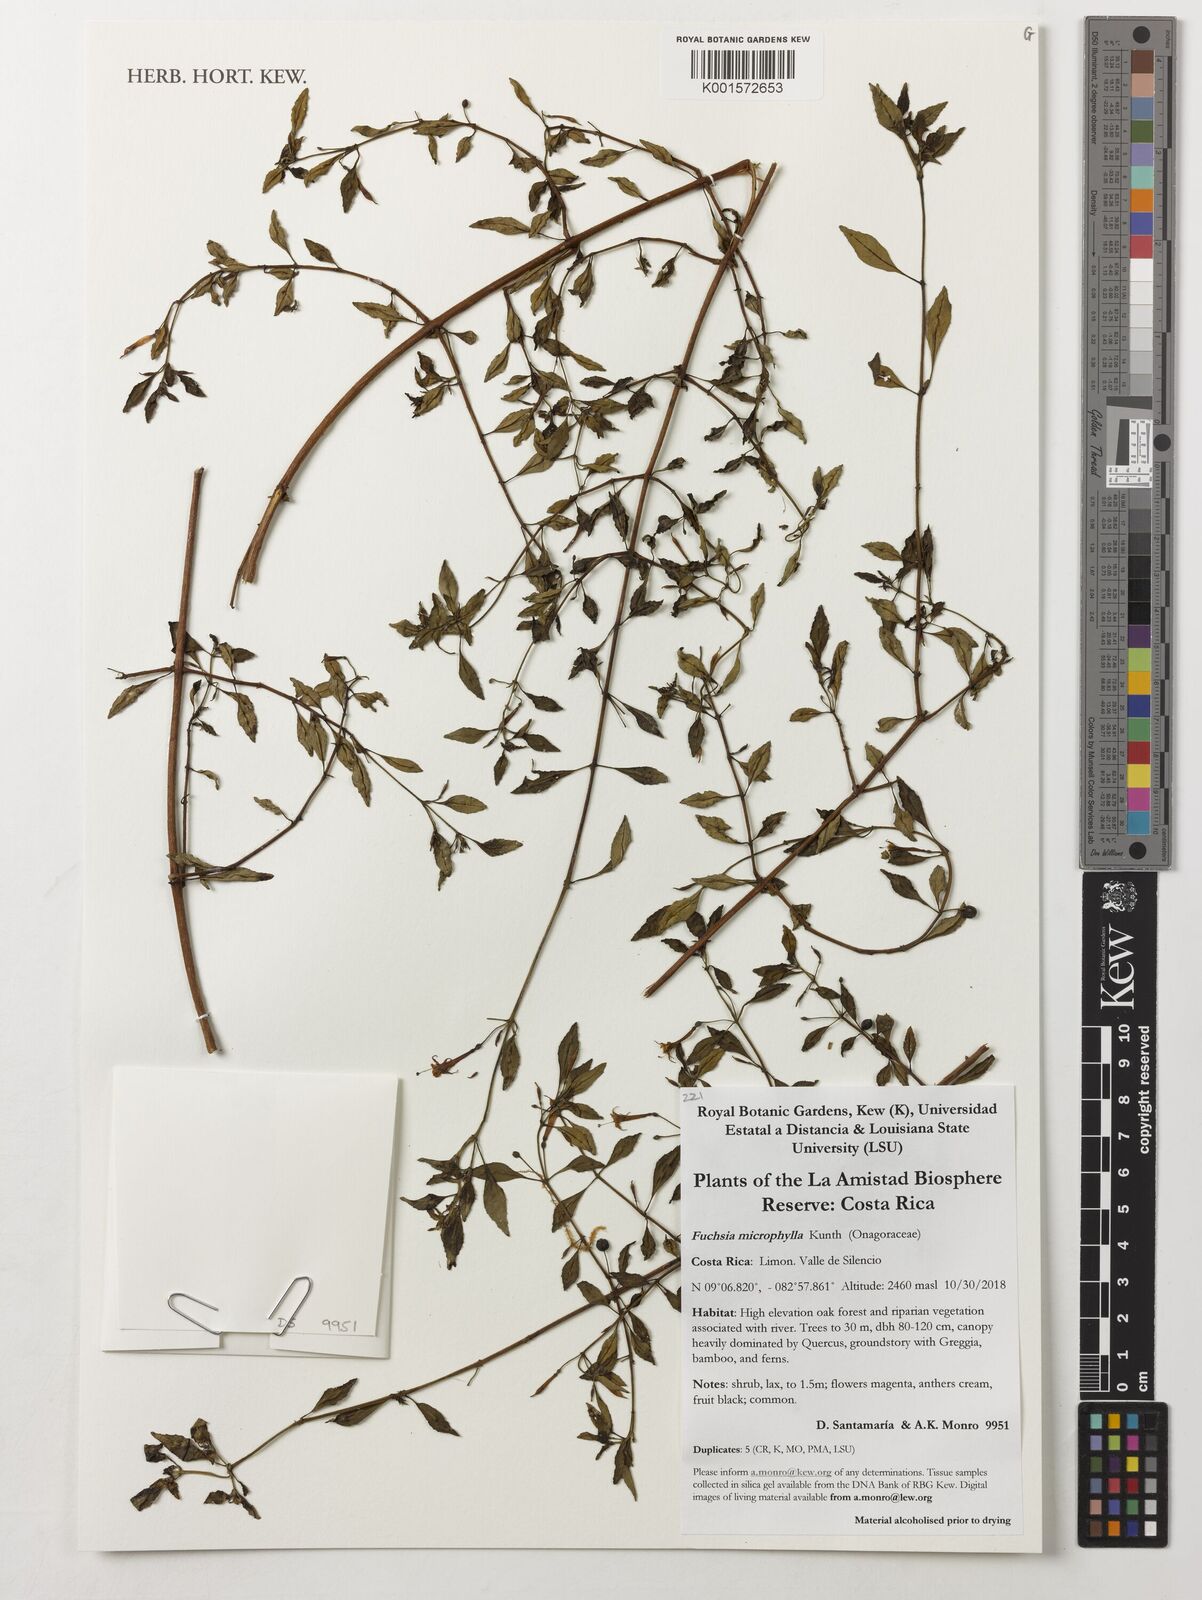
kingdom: Plantae
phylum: Tracheophyta
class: Magnoliopsida
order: Myrtales
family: Onagraceae
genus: Fuchsia
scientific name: Fuchsia microphylla
